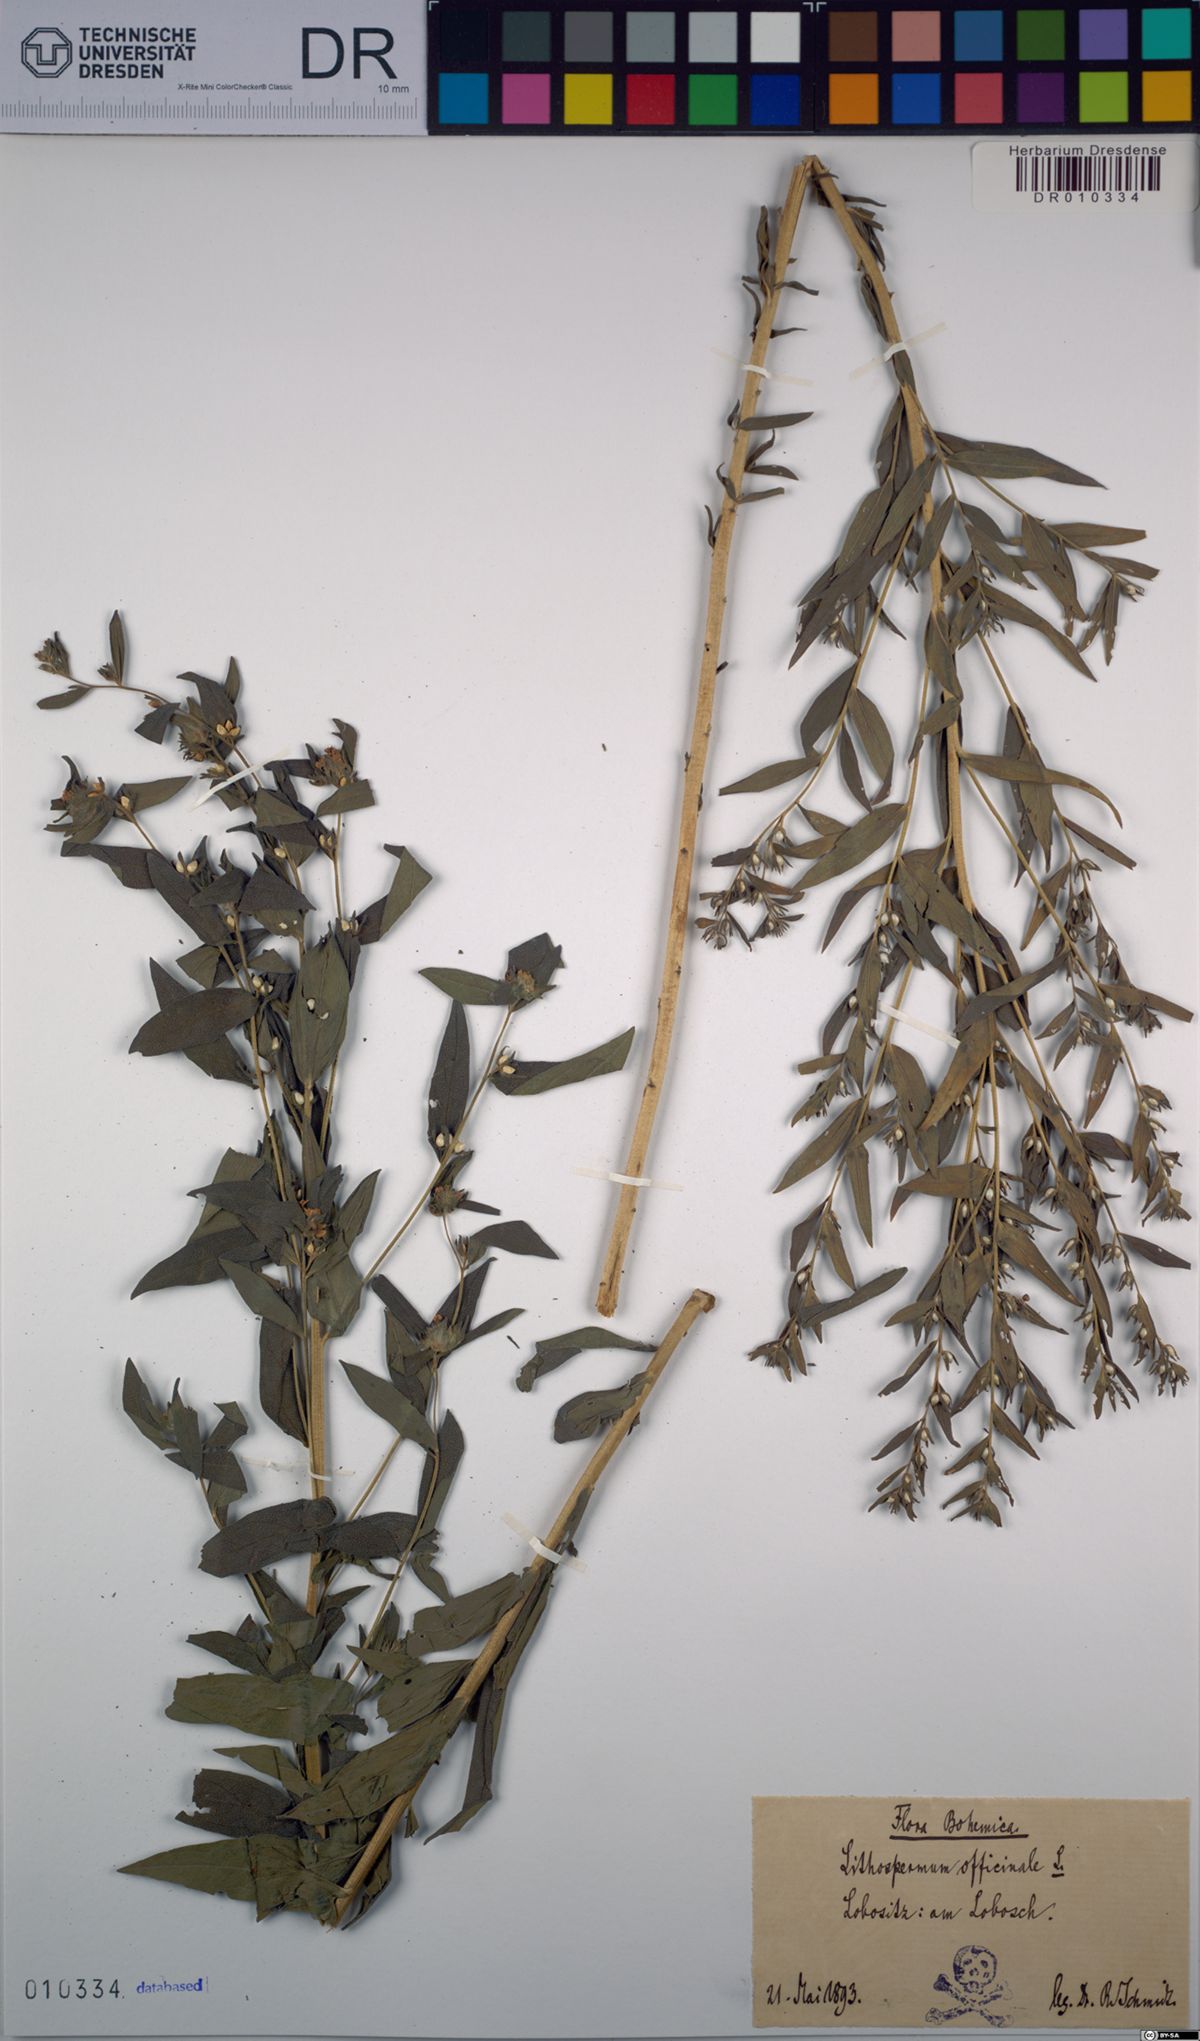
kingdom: Plantae
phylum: Tracheophyta
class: Magnoliopsida
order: Boraginales
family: Boraginaceae
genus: Lithospermum
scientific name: Lithospermum officinale
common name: Common gromwell
